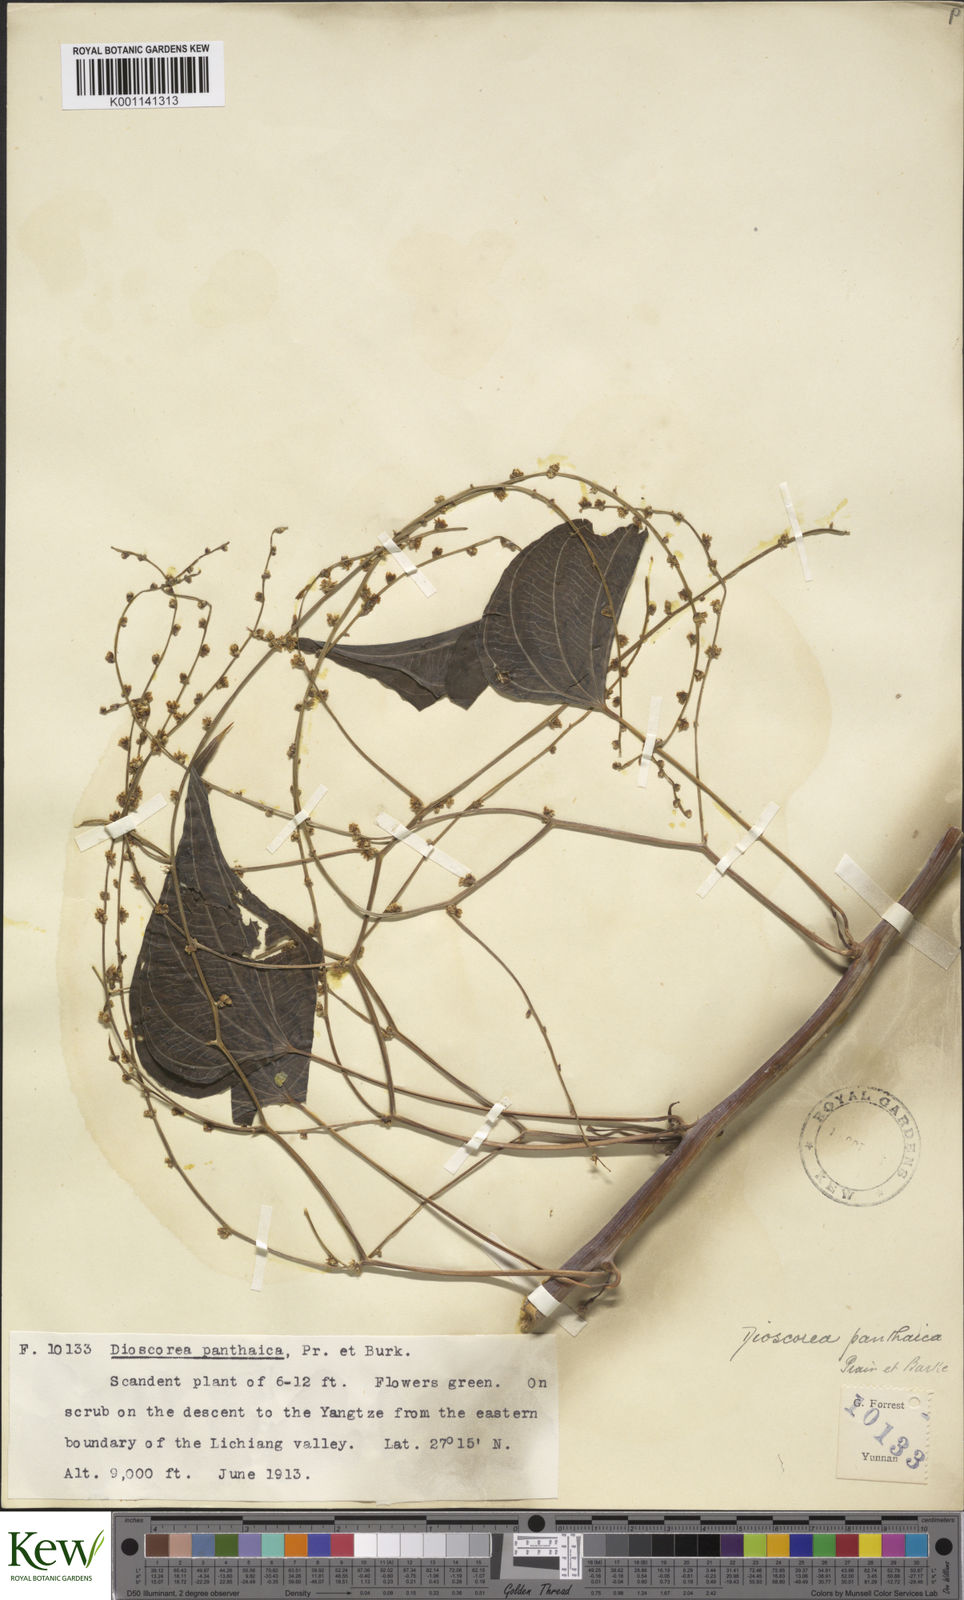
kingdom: Plantae
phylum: Tracheophyta
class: Liliopsida
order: Dioscoreales
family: Dioscoreaceae
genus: Dioscorea
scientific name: Dioscorea panthaica
